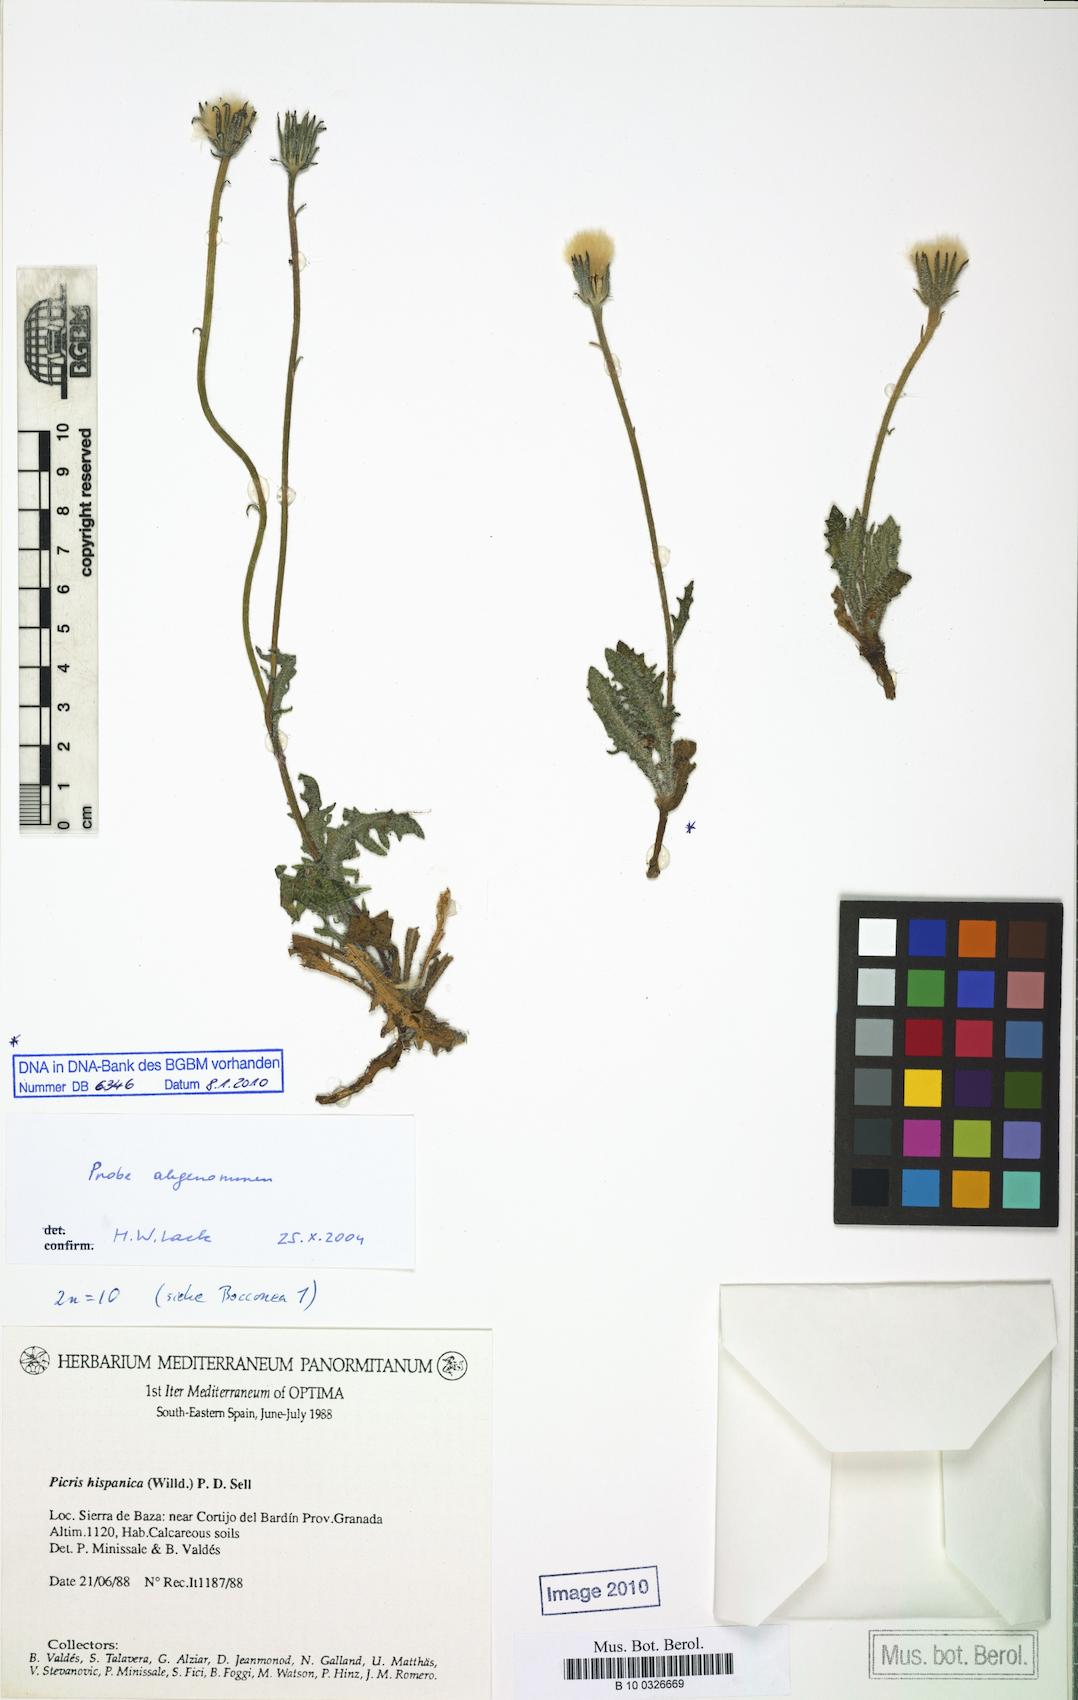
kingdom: Plantae
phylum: Tracheophyta
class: Magnoliopsida
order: Asterales
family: Asteraceae
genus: Picris
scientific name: Picris hispanica
